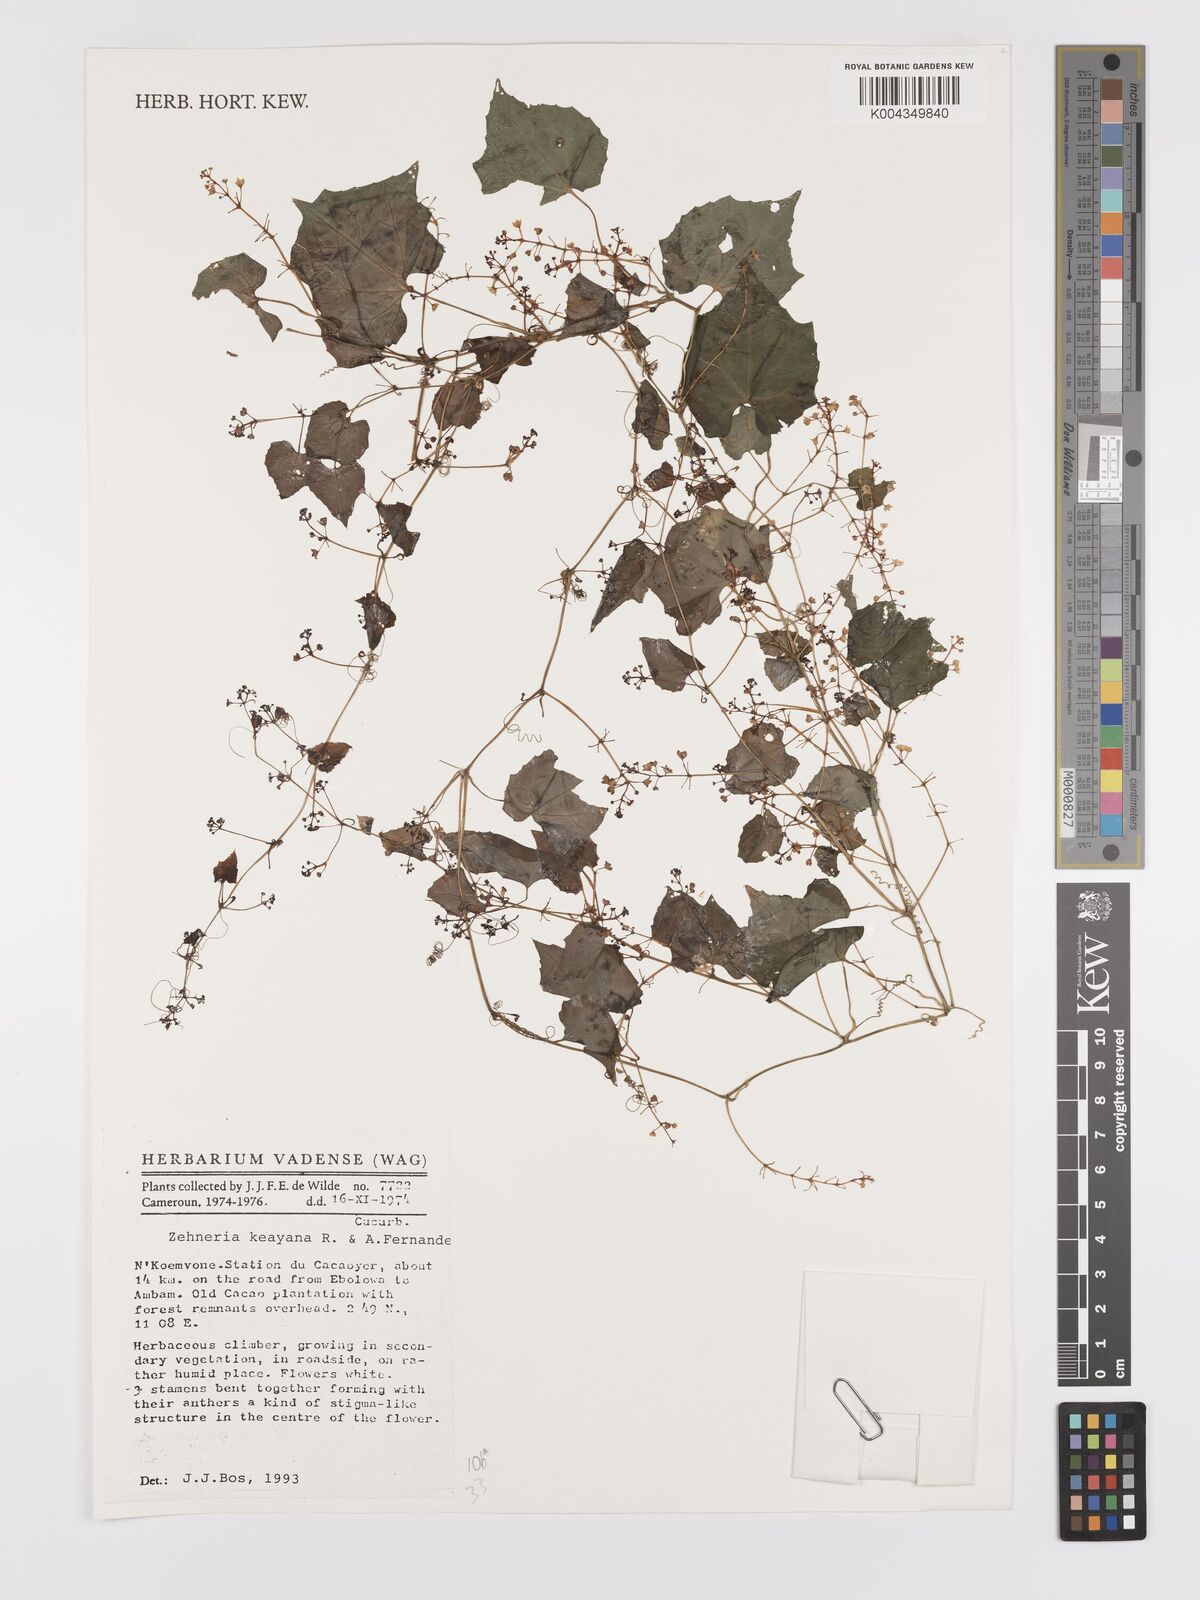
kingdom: Plantae
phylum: Tracheophyta
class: Magnoliopsida
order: Cucurbitales
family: Cucurbitaceae
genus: Zehneria
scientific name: Zehneria keayana
